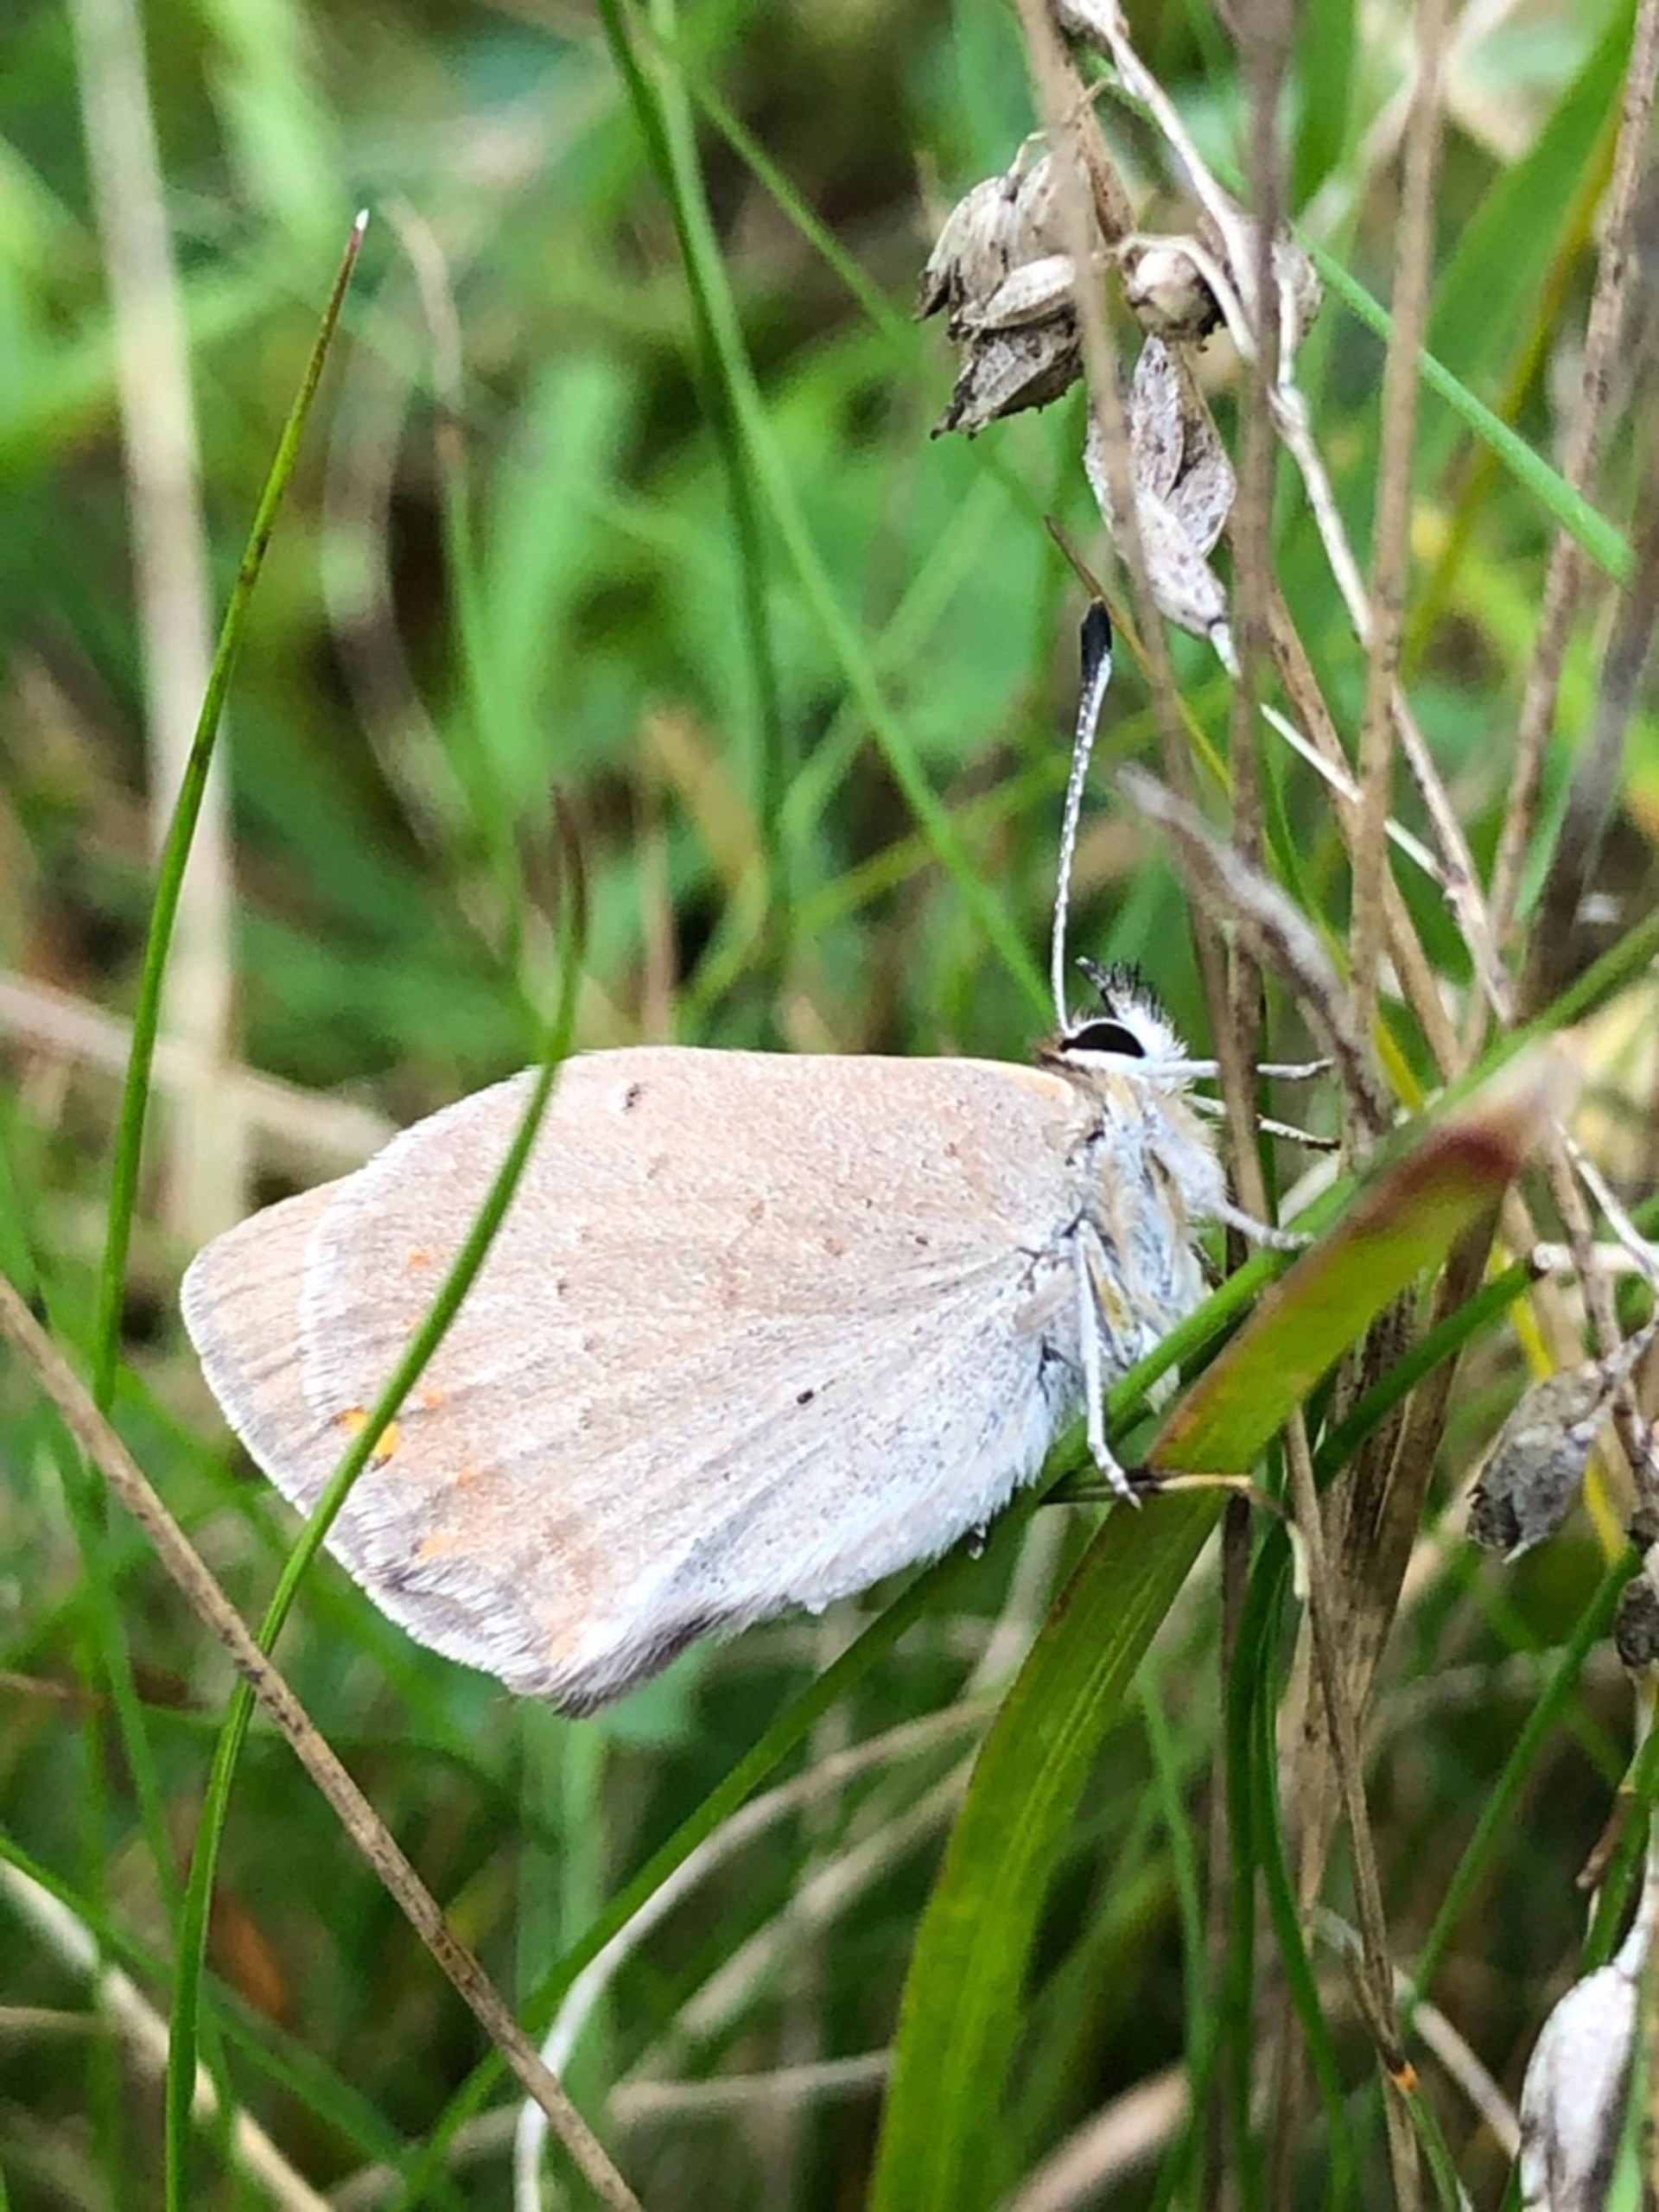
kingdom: Animalia
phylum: Arthropoda
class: Insecta
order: Lepidoptera
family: Lycaenidae
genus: Lycaena
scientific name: Lycaena phlaeas
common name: Lille ildfugl
